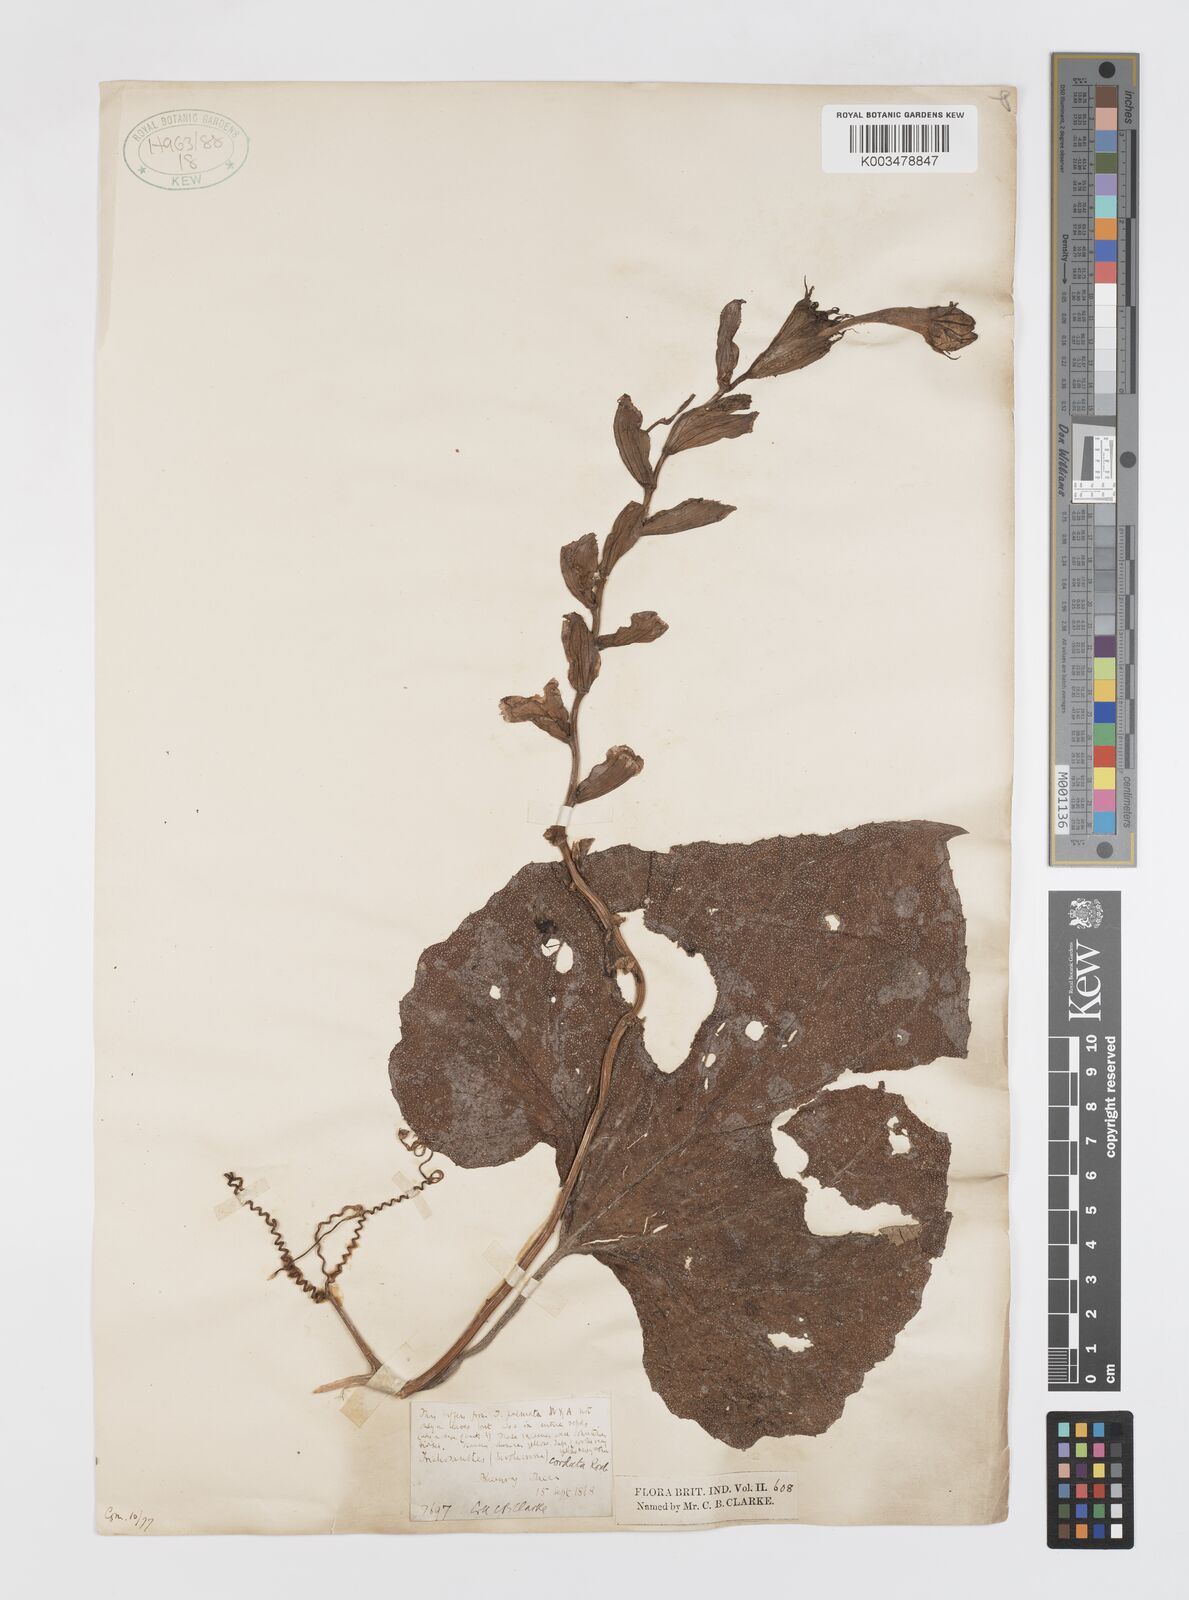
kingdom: Plantae
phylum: Tracheophyta
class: Magnoliopsida
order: Cucurbitales
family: Cucurbitaceae
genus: Trichosanthes
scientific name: Trichosanthes cordata
